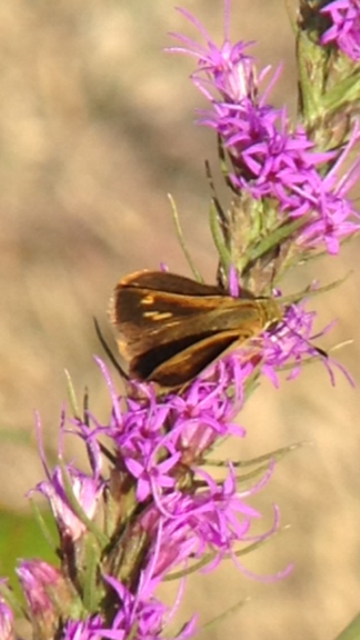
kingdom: Animalia
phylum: Arthropoda
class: Insecta
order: Lepidoptera
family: Hesperiidae
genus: Wallengrenia
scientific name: Wallengrenia otho
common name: Southern Broken-Dash
